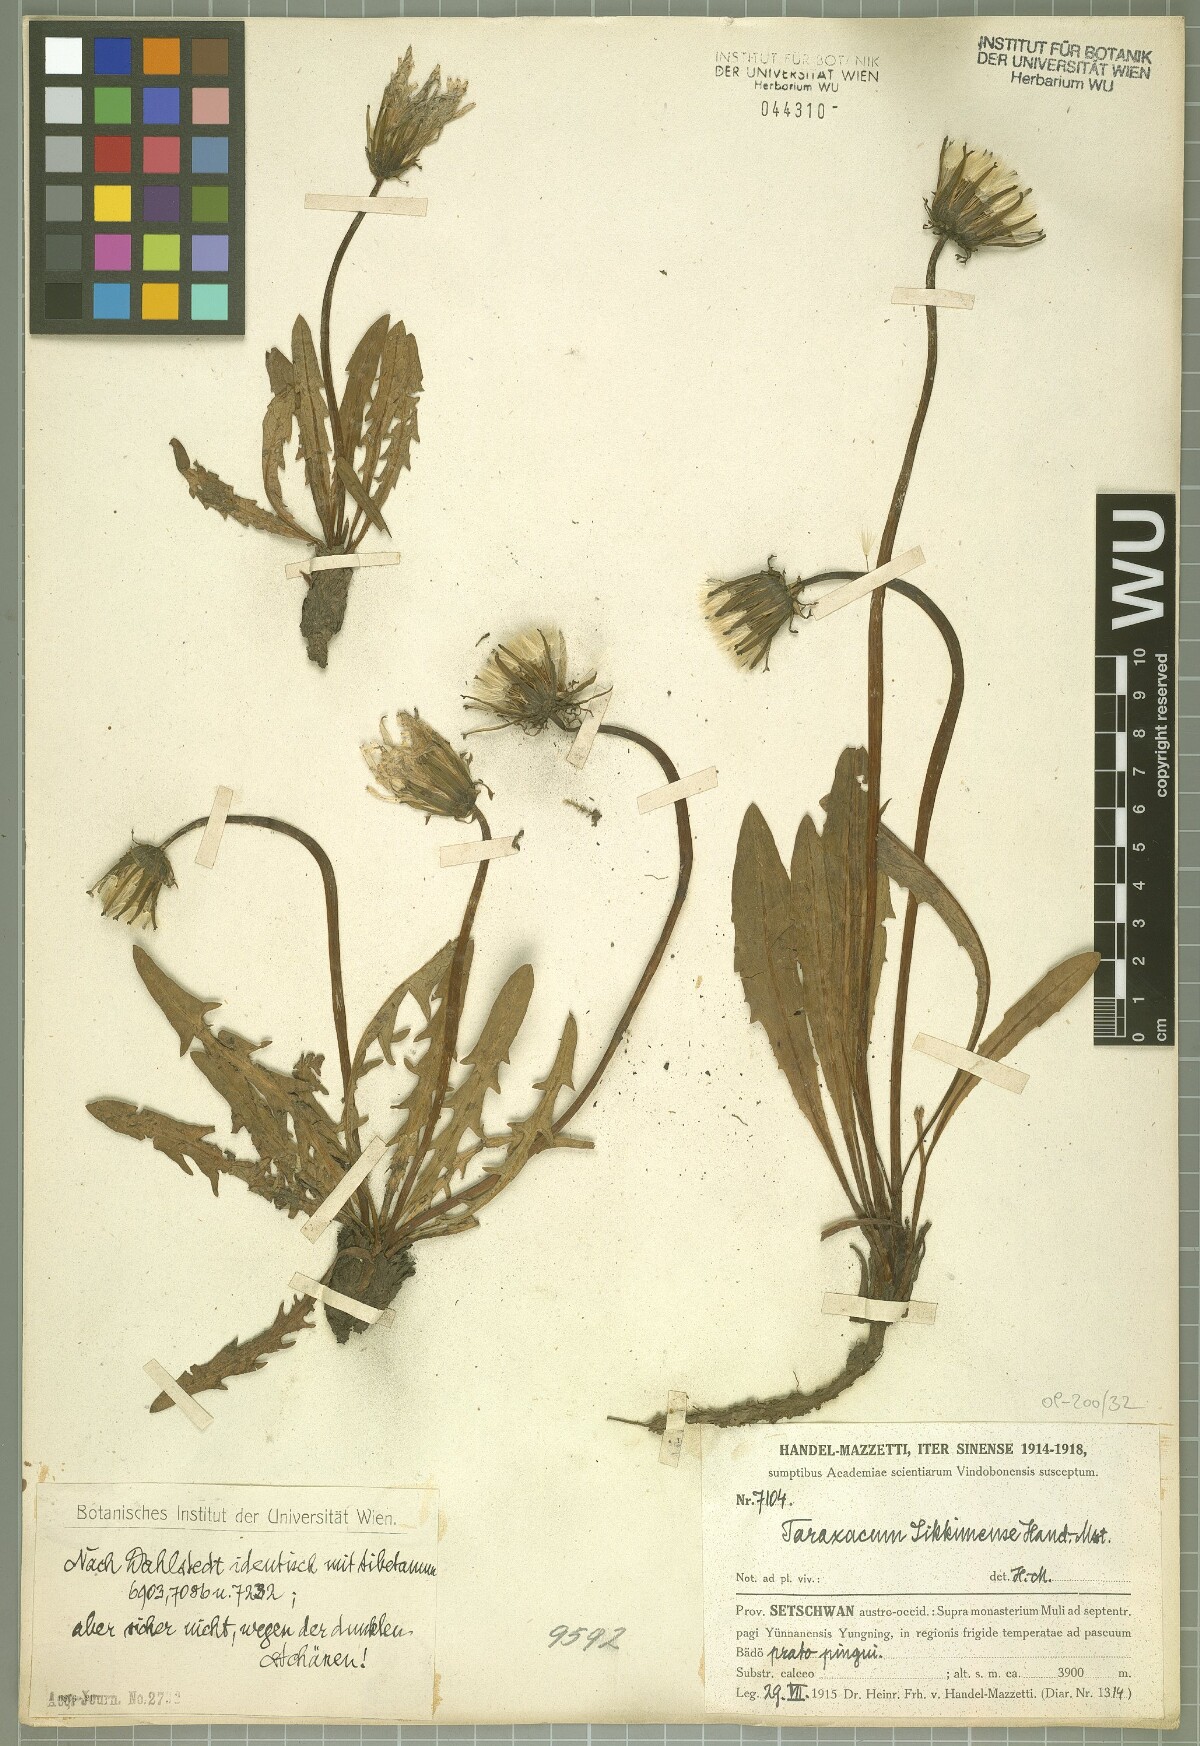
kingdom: Plantae
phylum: Tracheophyta
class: Magnoliopsida
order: Asterales
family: Asteraceae
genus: Taraxacum
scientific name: Taraxacum sikkimense
